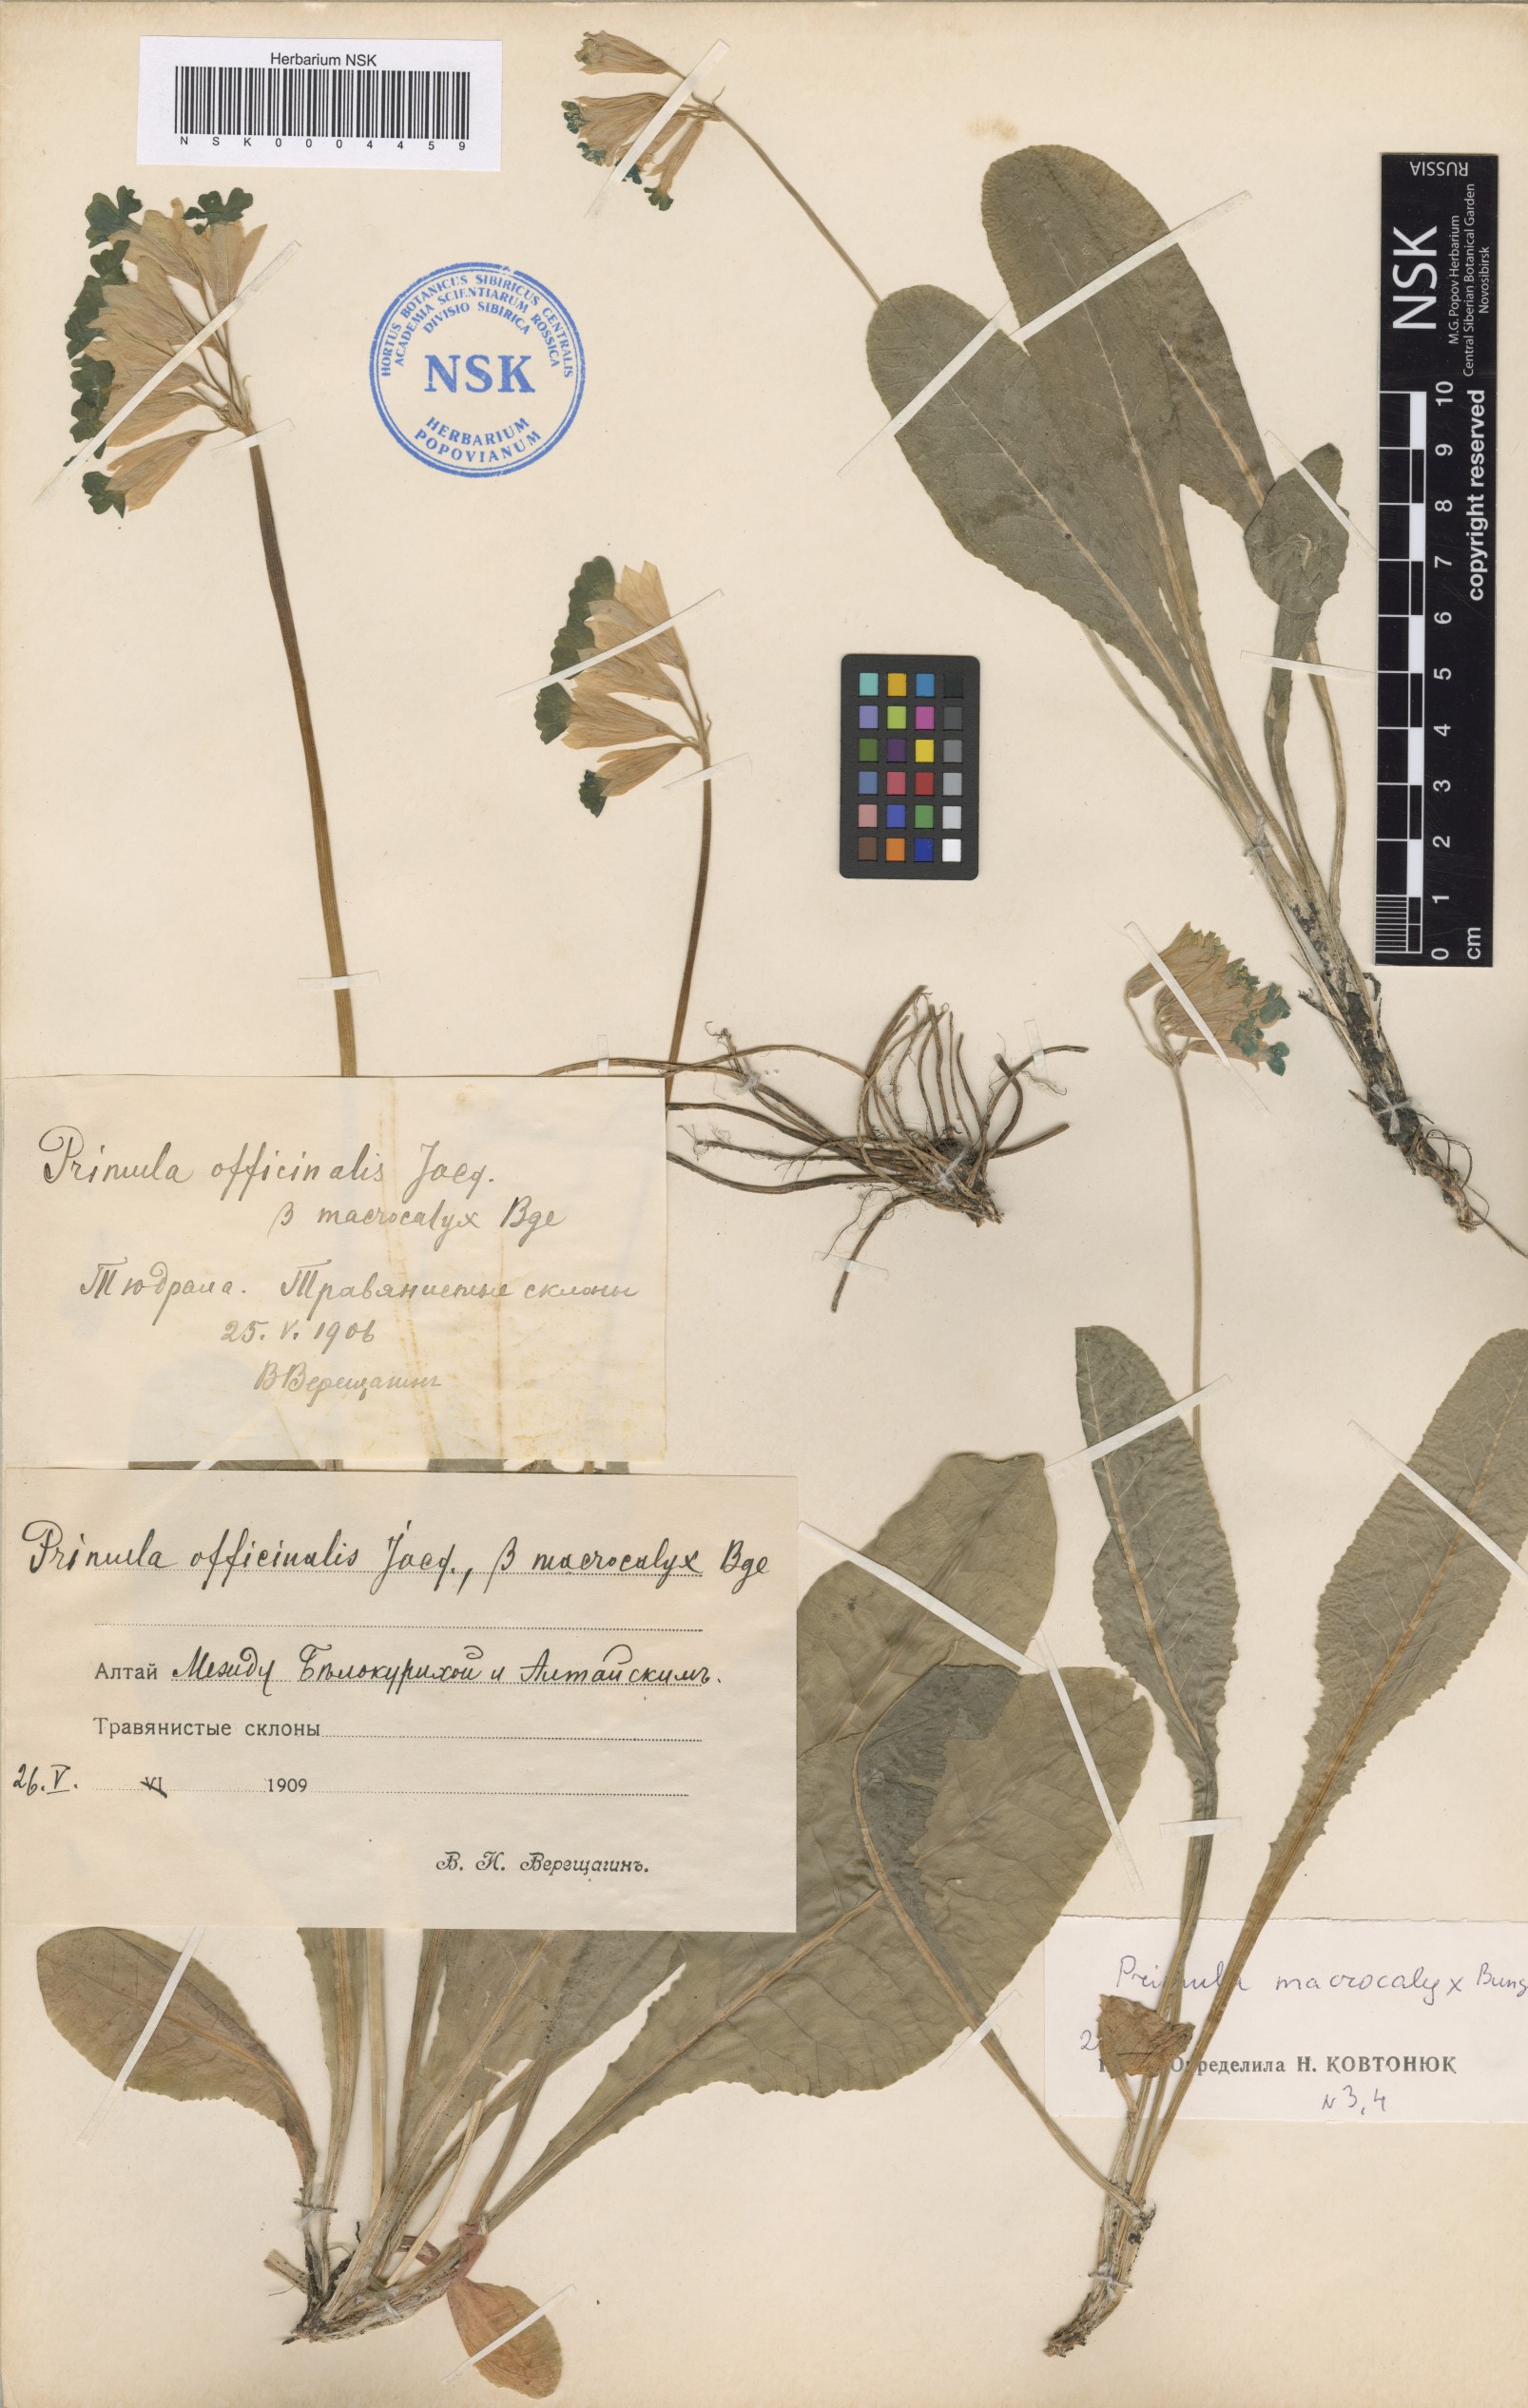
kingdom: Plantae
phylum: Tracheophyta
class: Magnoliopsida
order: Ericales
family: Primulaceae
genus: Primula
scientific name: Primula veris
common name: Cowslip
